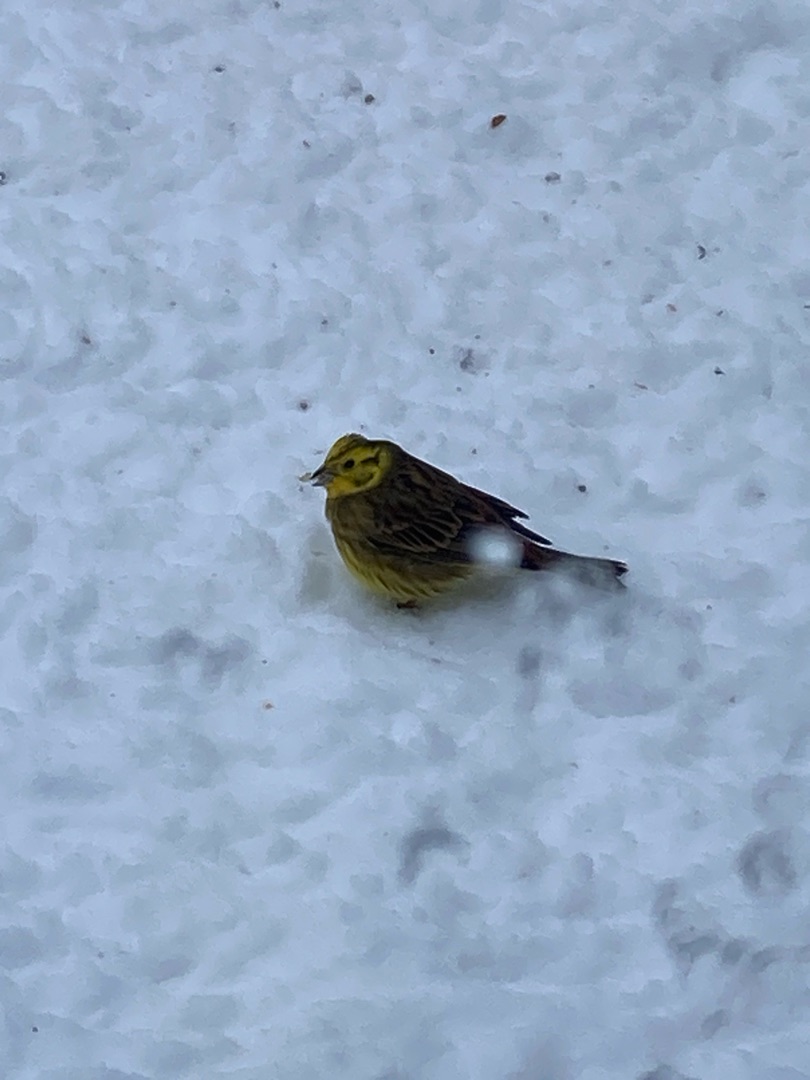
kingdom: Animalia
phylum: Chordata
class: Aves
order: Passeriformes
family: Emberizidae
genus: Emberiza
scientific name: Emberiza citrinella
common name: Gulspurv
